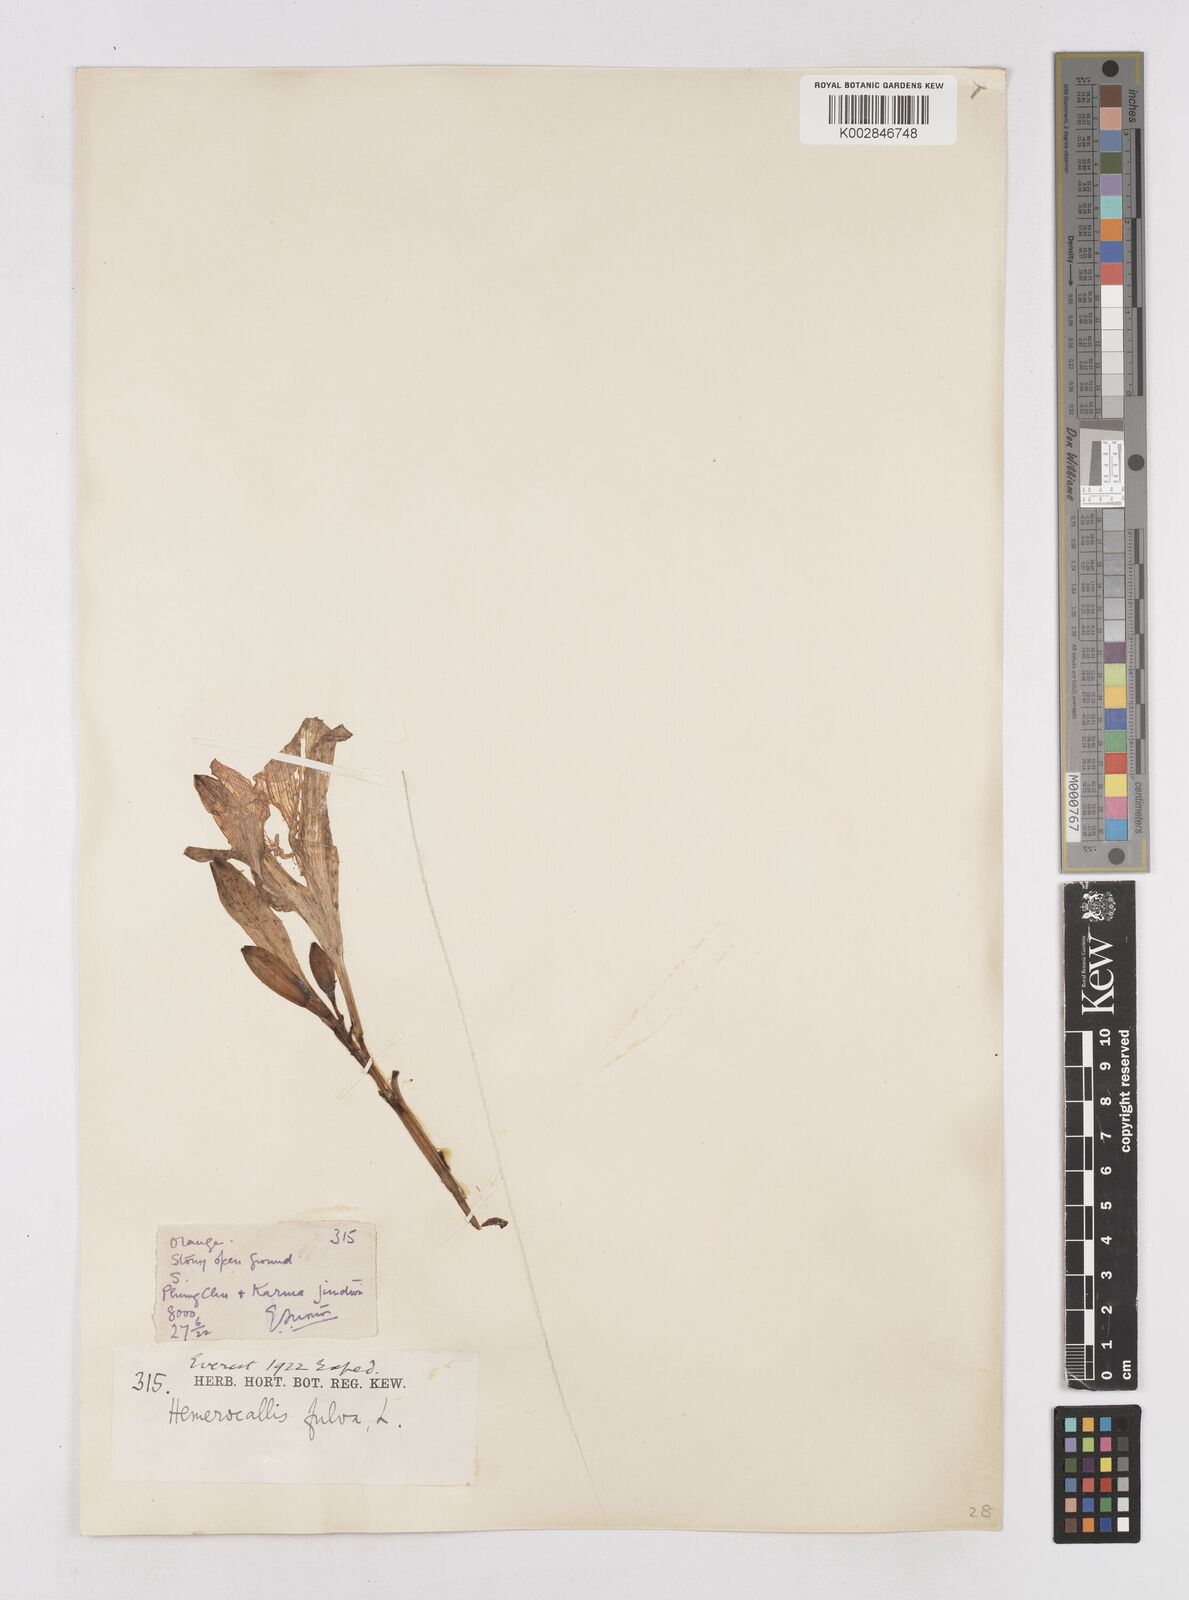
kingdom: Plantae
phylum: Tracheophyta
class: Liliopsida
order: Asparagales
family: Asphodelaceae
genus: Hemerocallis
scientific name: Hemerocallis fulva
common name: Orange day-lily
